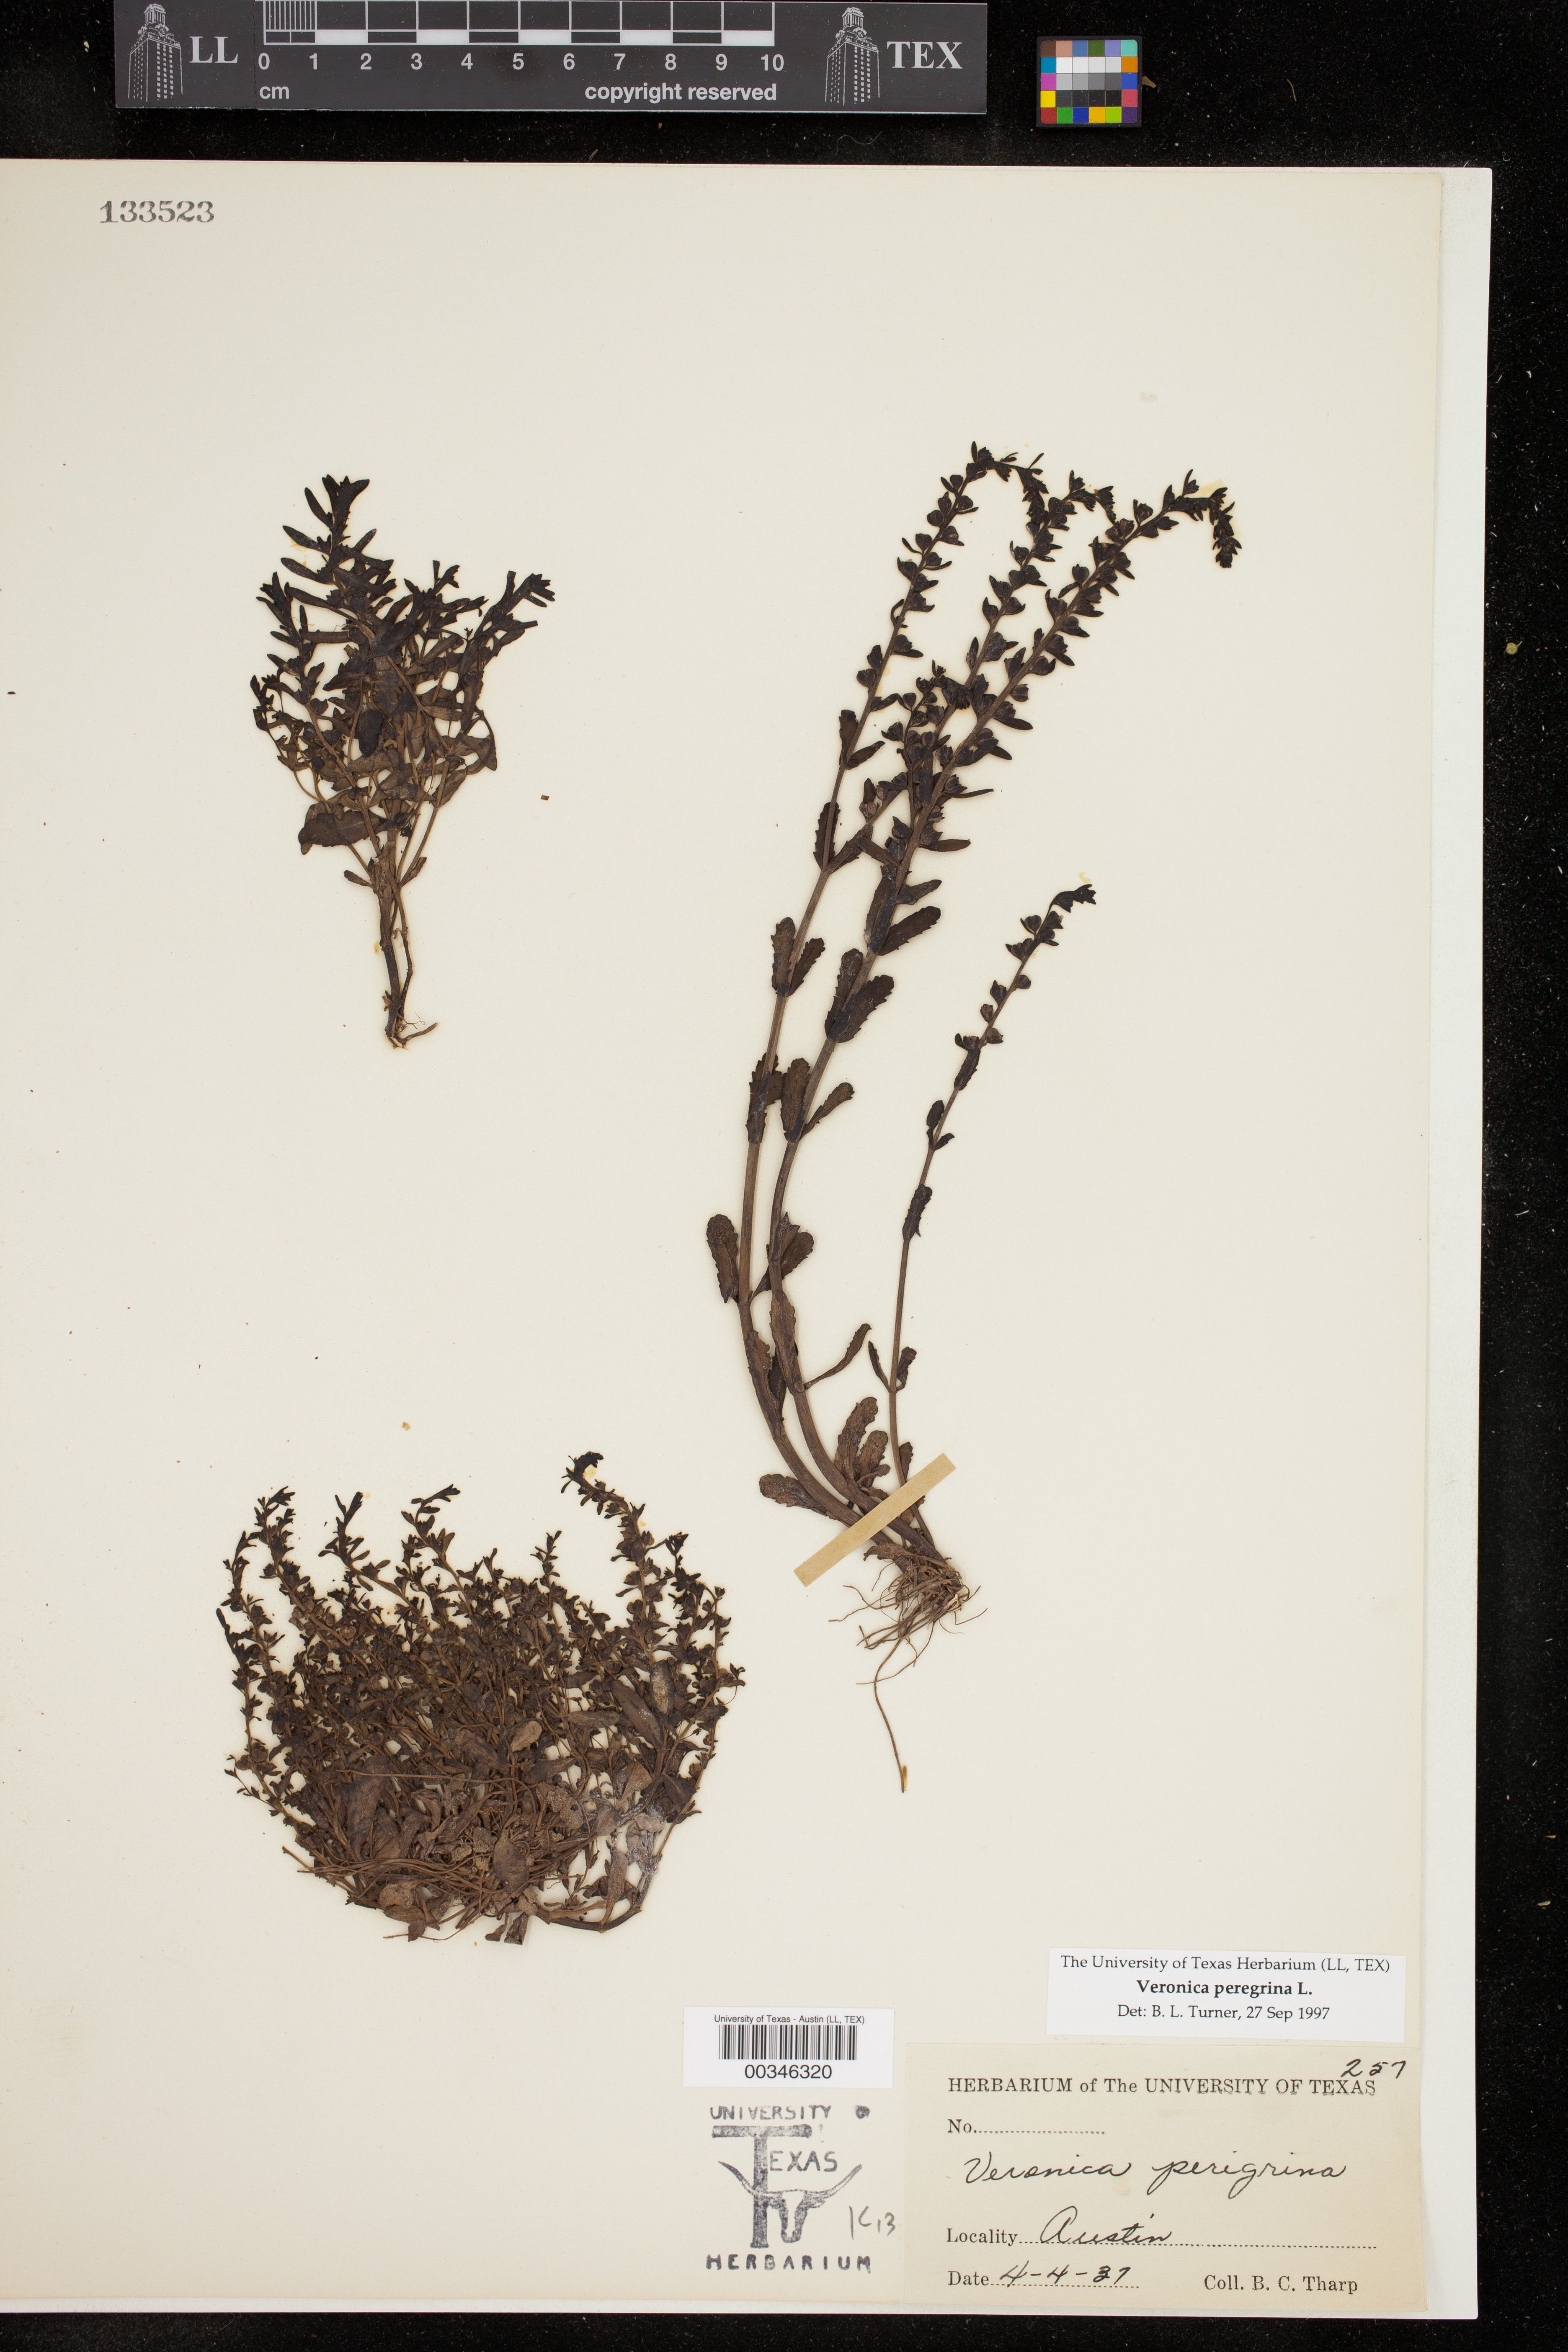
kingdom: Plantae
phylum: Tracheophyta
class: Magnoliopsida
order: Lamiales
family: Plantaginaceae
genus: Veronica
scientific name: Veronica peregrina
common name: Neckweed
